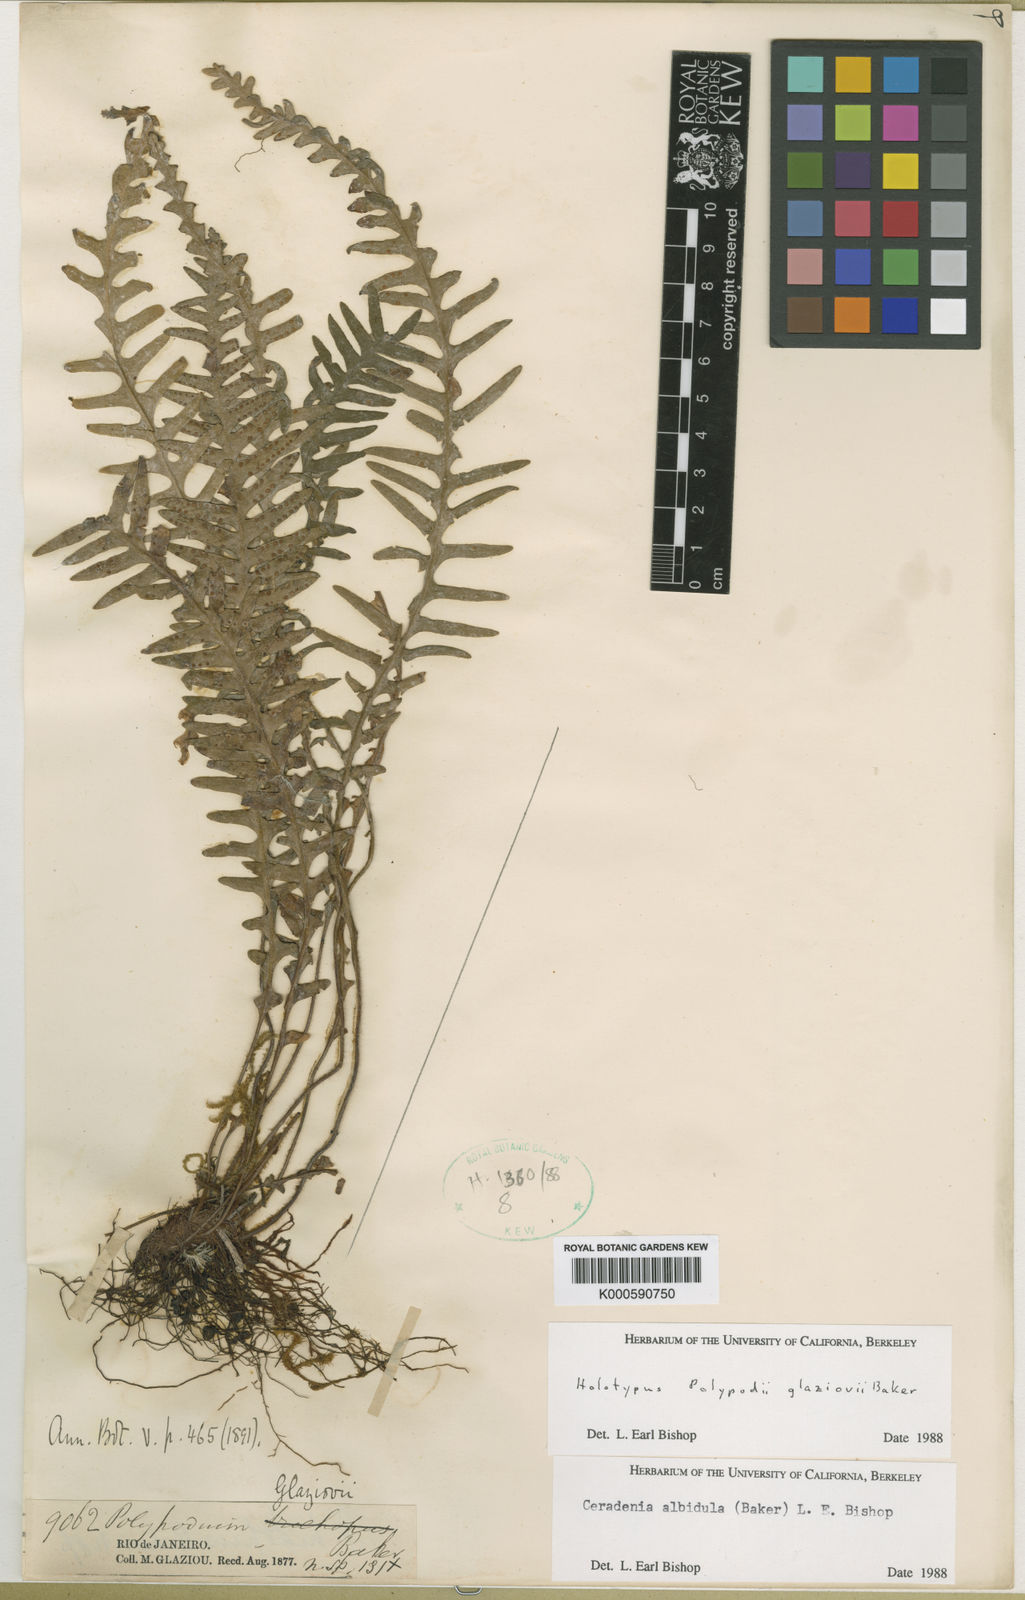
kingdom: Plantae
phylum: Tracheophyta
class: Polypodiopsida
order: Polypodiales
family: Polypodiaceae
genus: Ceradenia
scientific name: Ceradenia albidula
